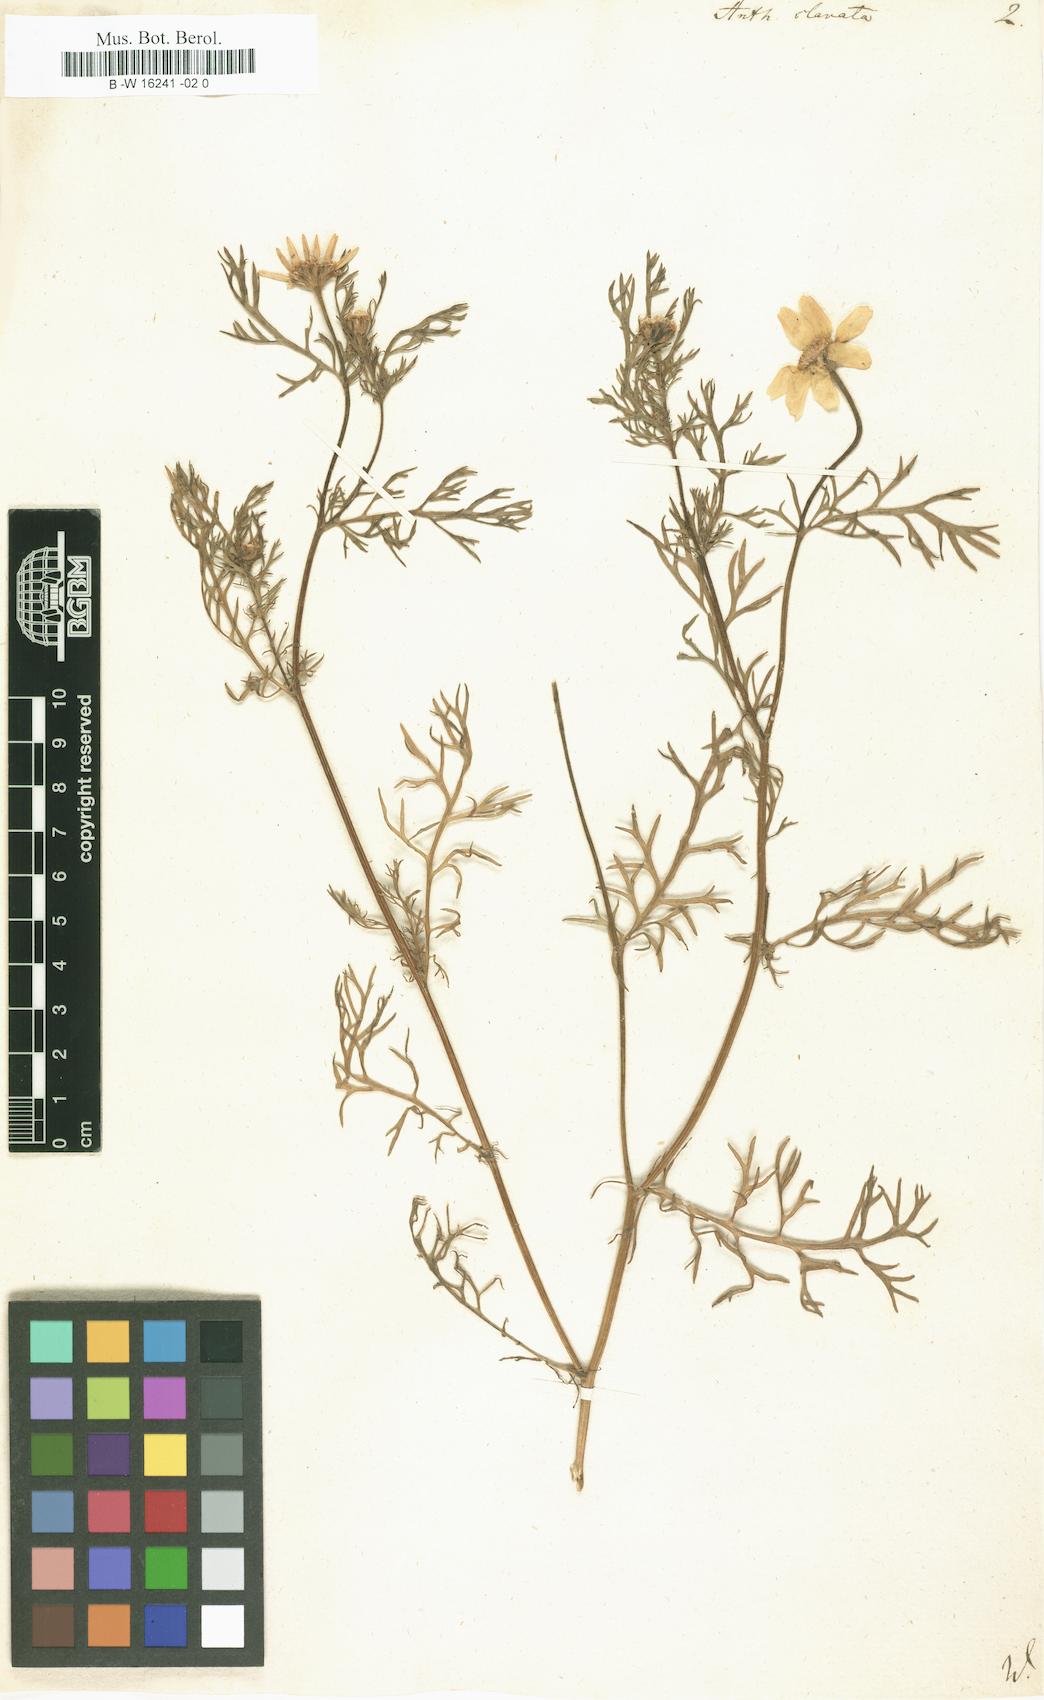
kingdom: Plantae
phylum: Tracheophyta
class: Magnoliopsida
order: Asterales
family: Asteraceae
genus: Anacyclus
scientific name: Anacyclus clavatus
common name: Whitebuttons
